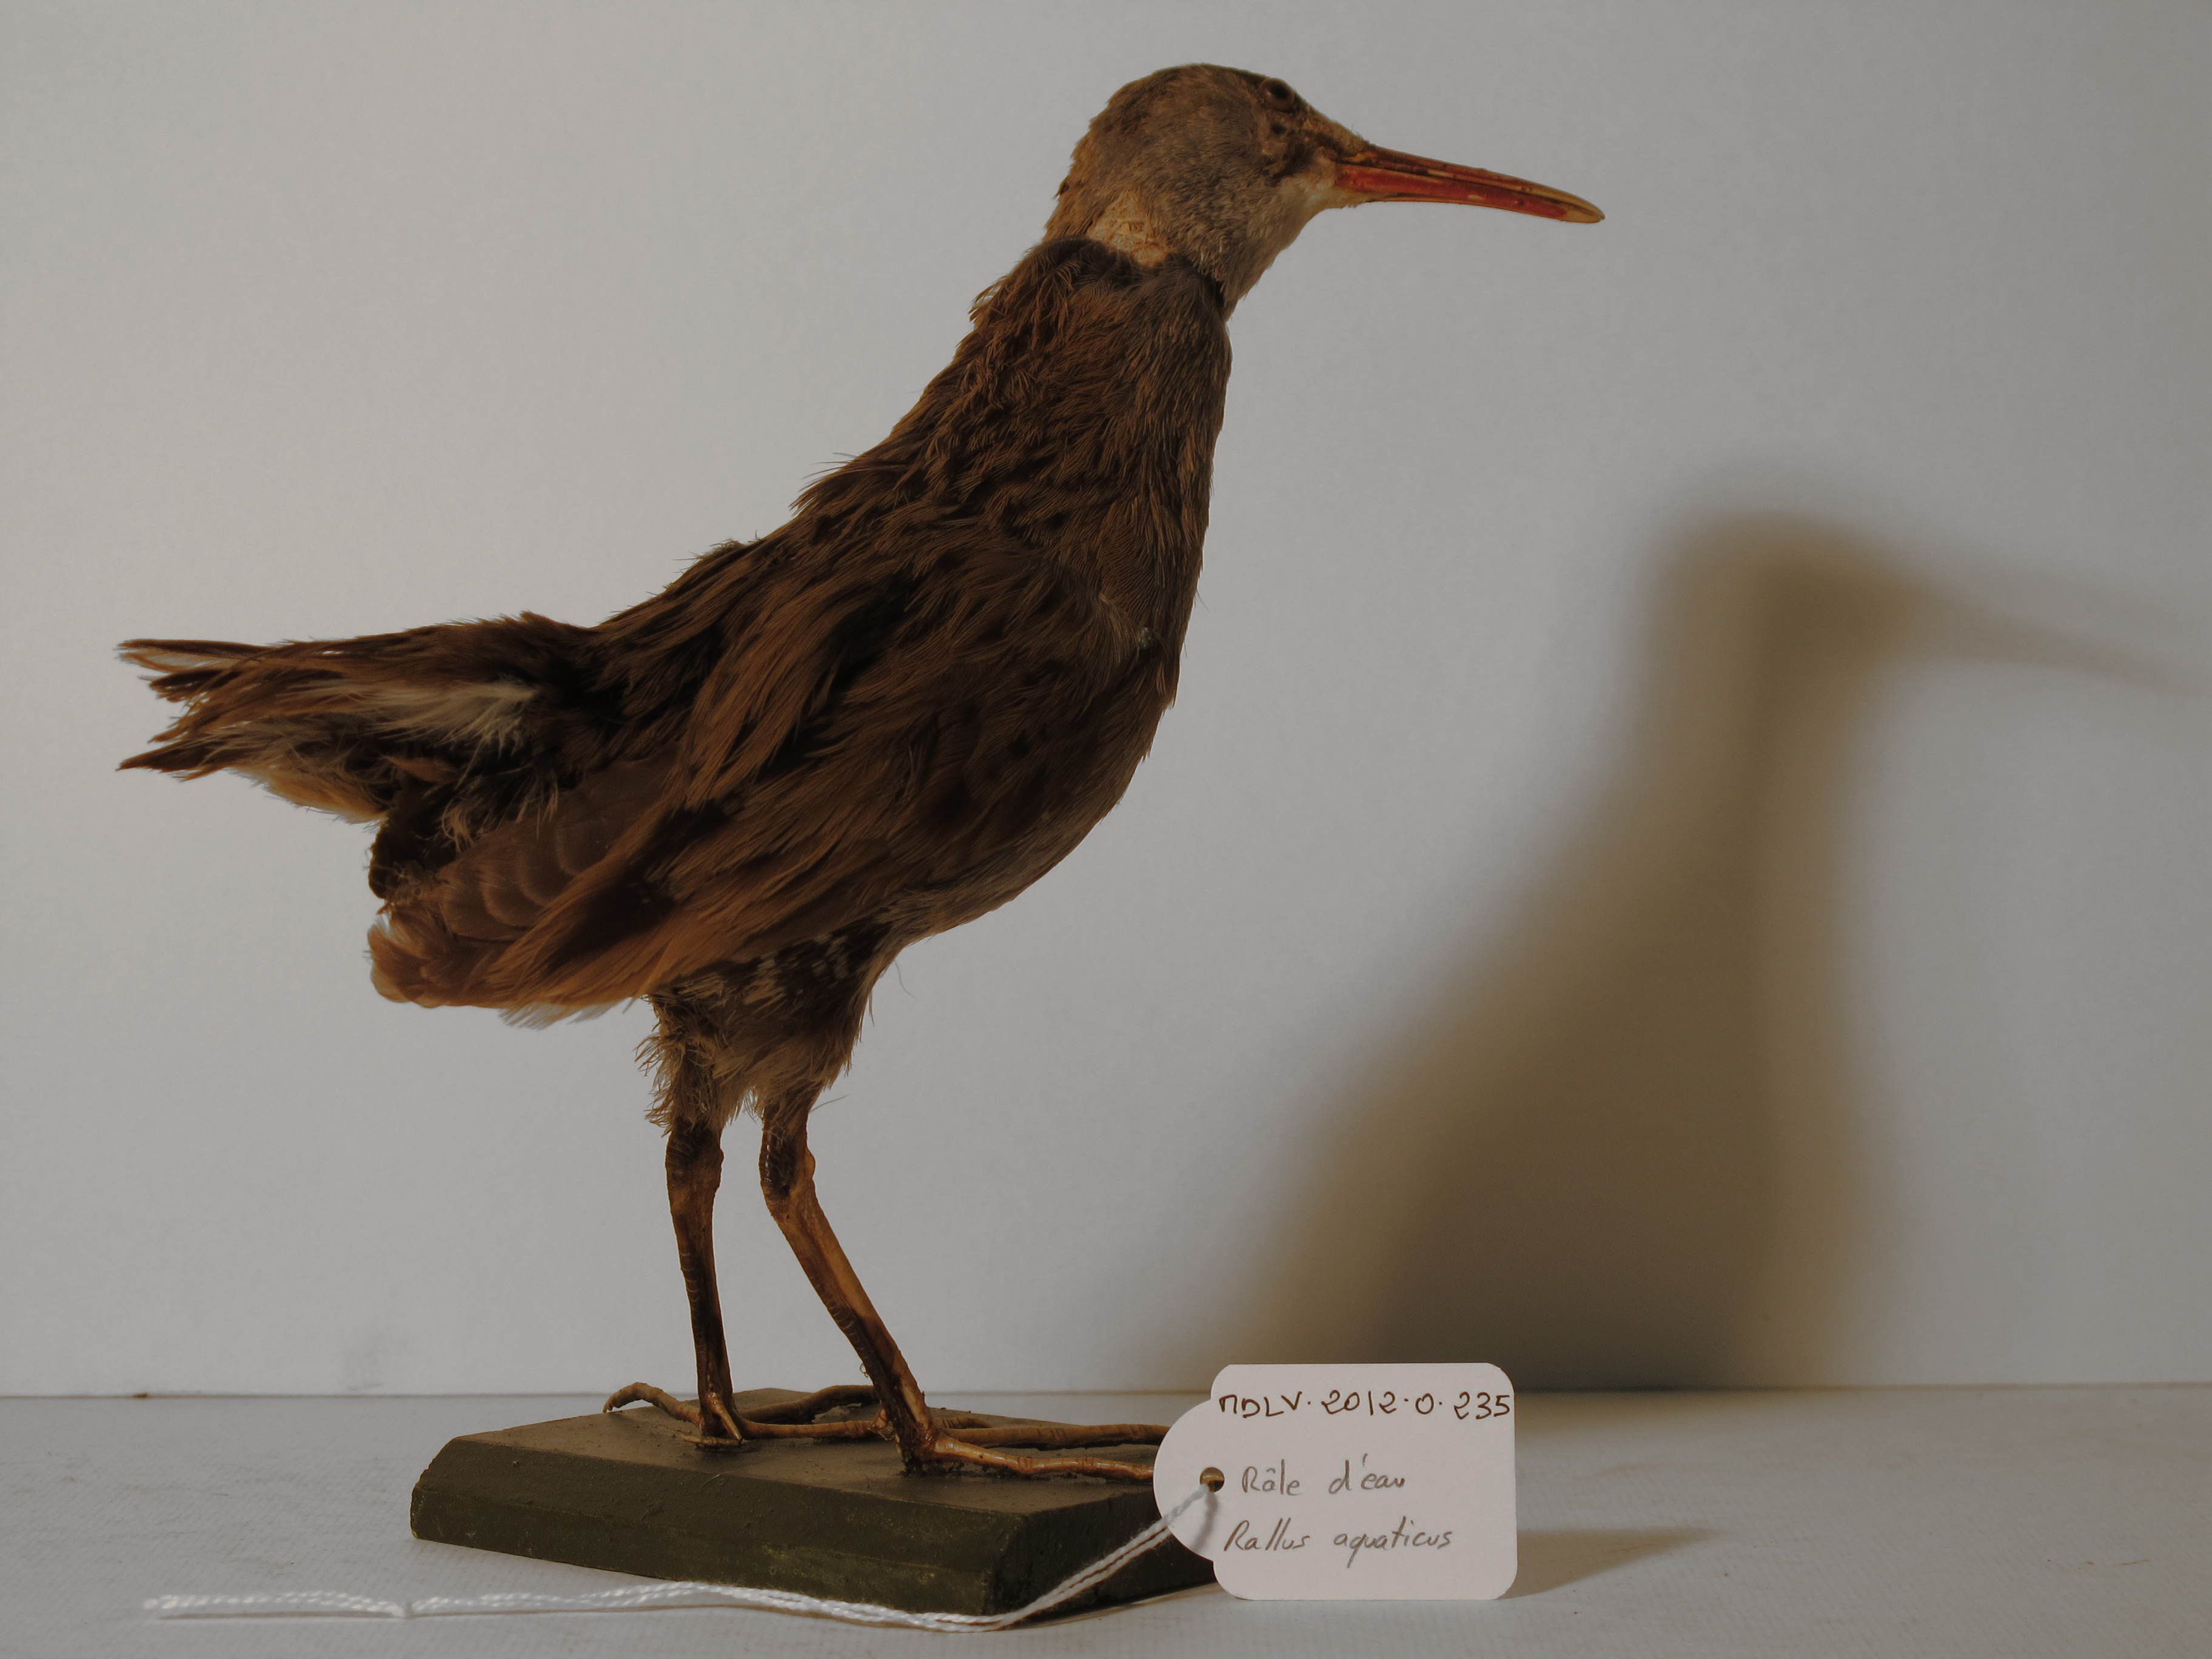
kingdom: Animalia
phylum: Chordata
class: Aves
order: Gruiformes
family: Rallidae
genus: Rallus
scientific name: Rallus aquaticus
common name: Water Rail
